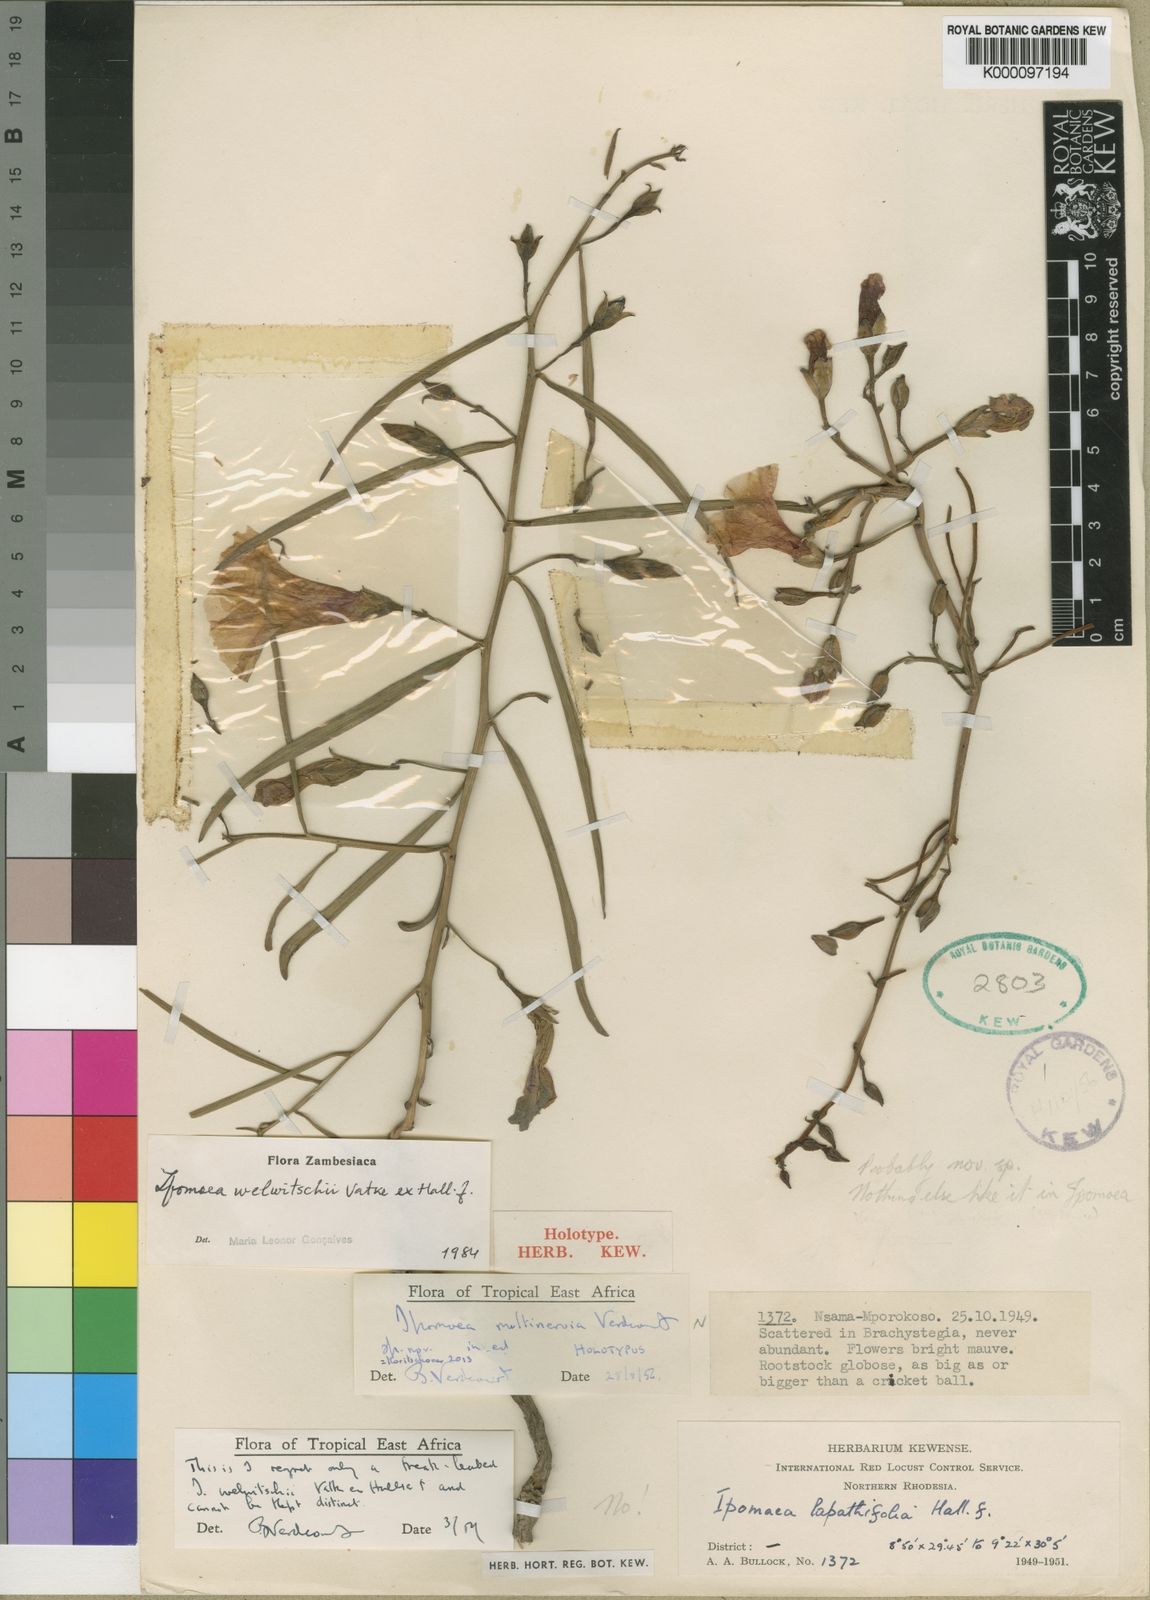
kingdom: Plantae
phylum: Tracheophyta
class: Magnoliopsida
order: Solanales
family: Convolvulaceae
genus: Ipomoea
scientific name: Ipomoea welwitschii
